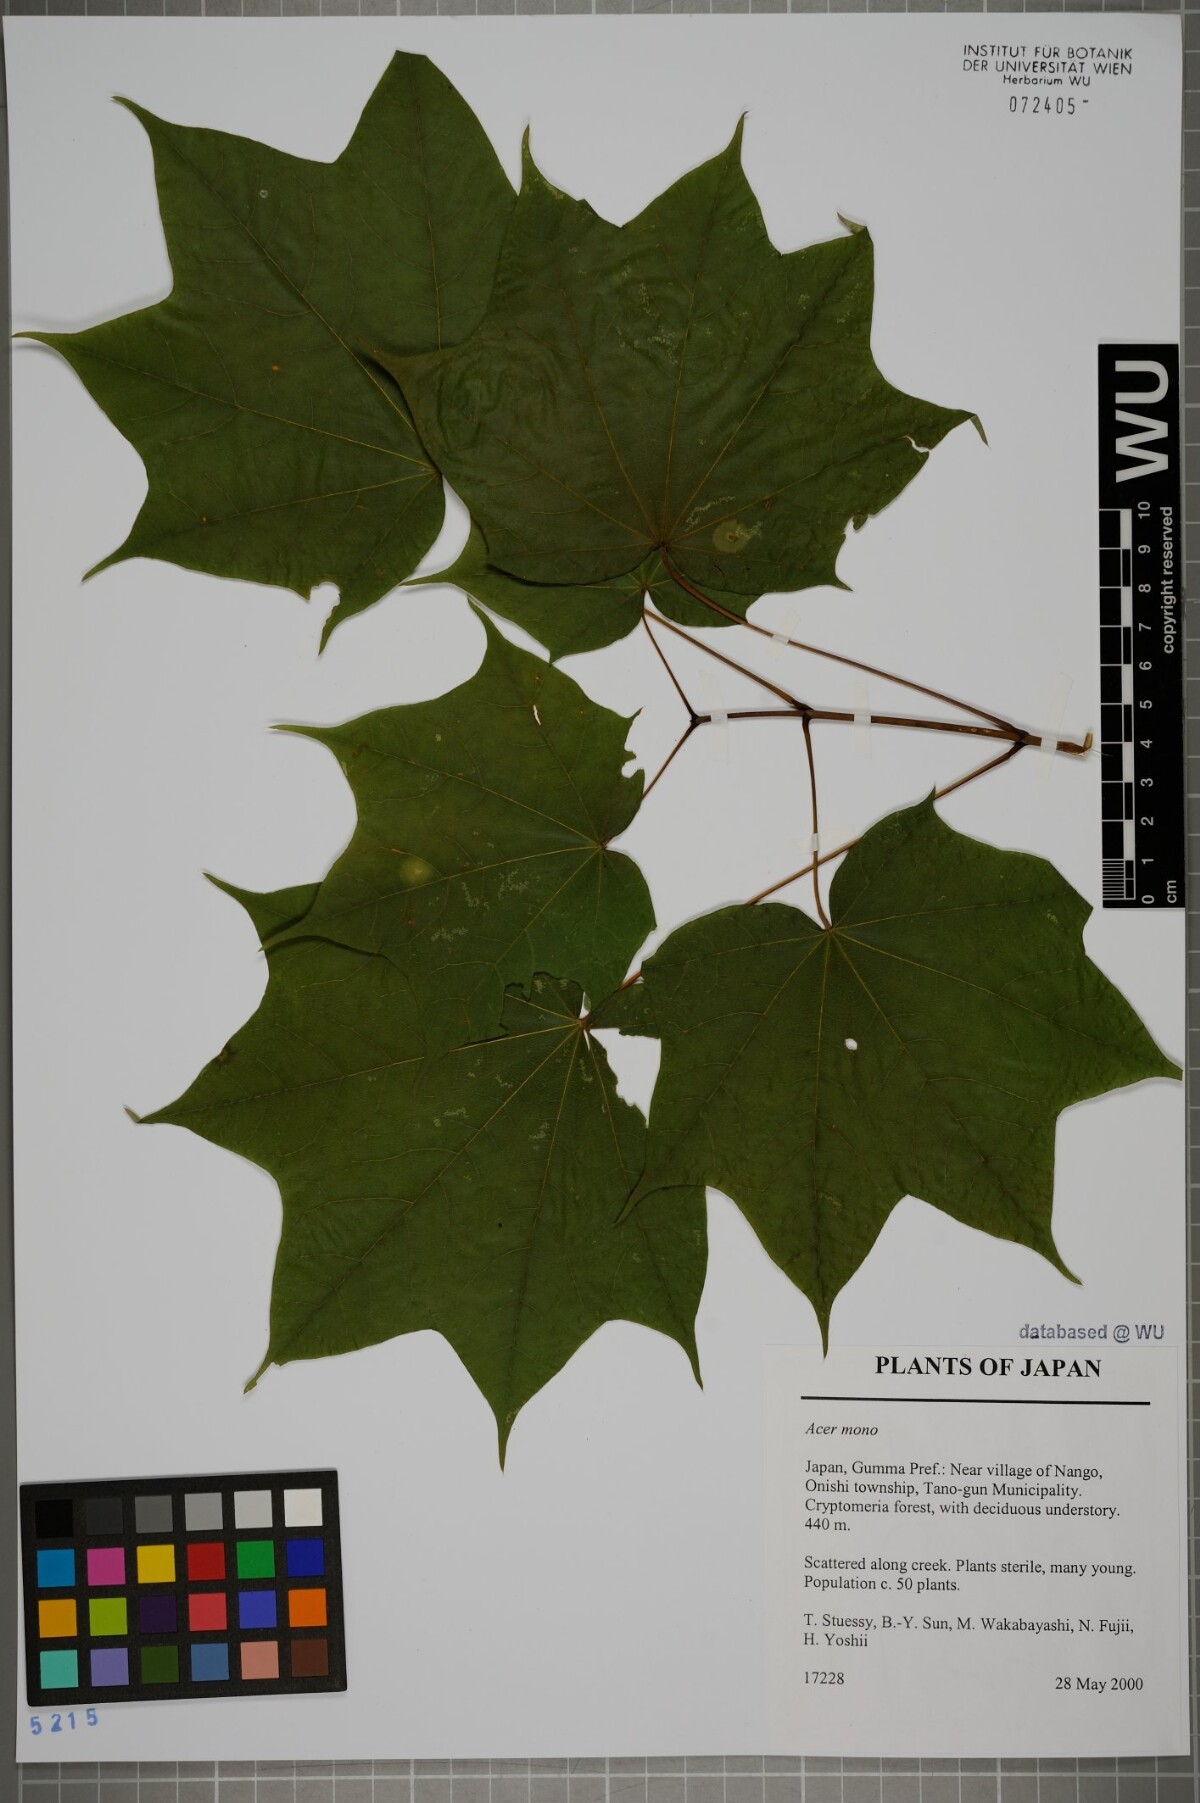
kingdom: Plantae
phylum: Tracheophyta
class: Magnoliopsida
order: Sapindales
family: Sapindaceae
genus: Acer
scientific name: Acer pictum
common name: The painted maple
